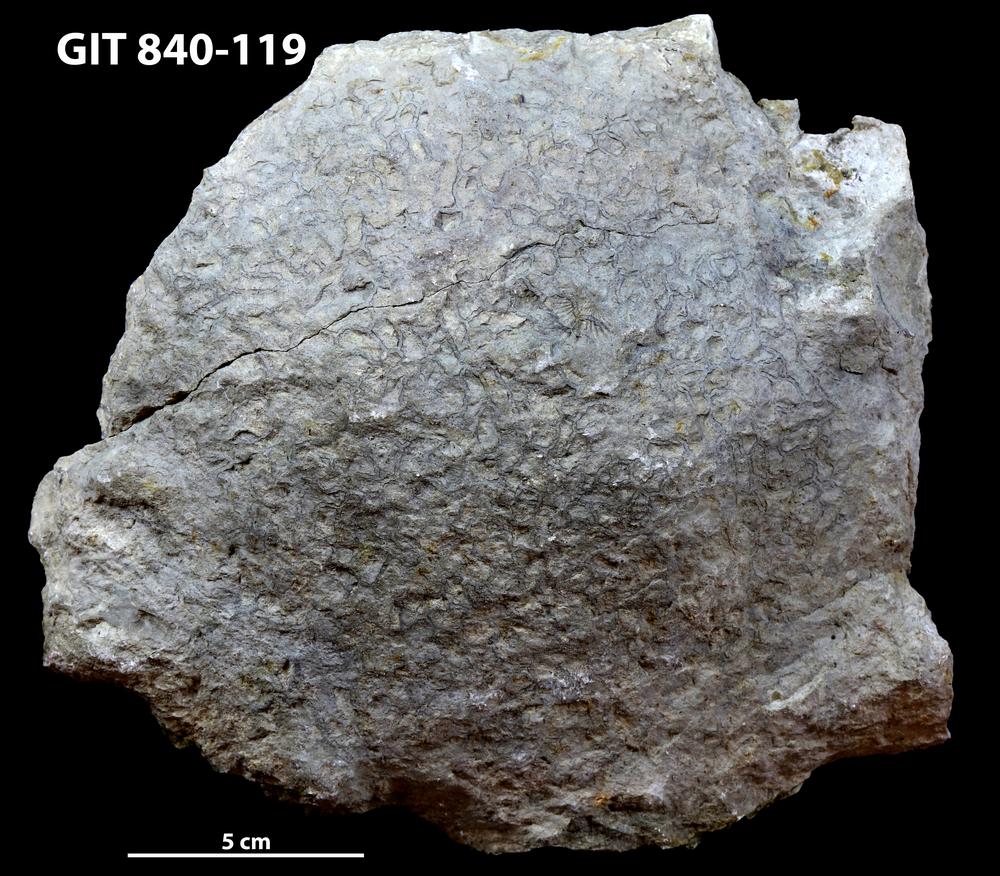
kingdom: Animalia
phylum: Cnidaria
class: Anthozoa
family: Cateniporidae
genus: Catenipora
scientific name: Catenipora
